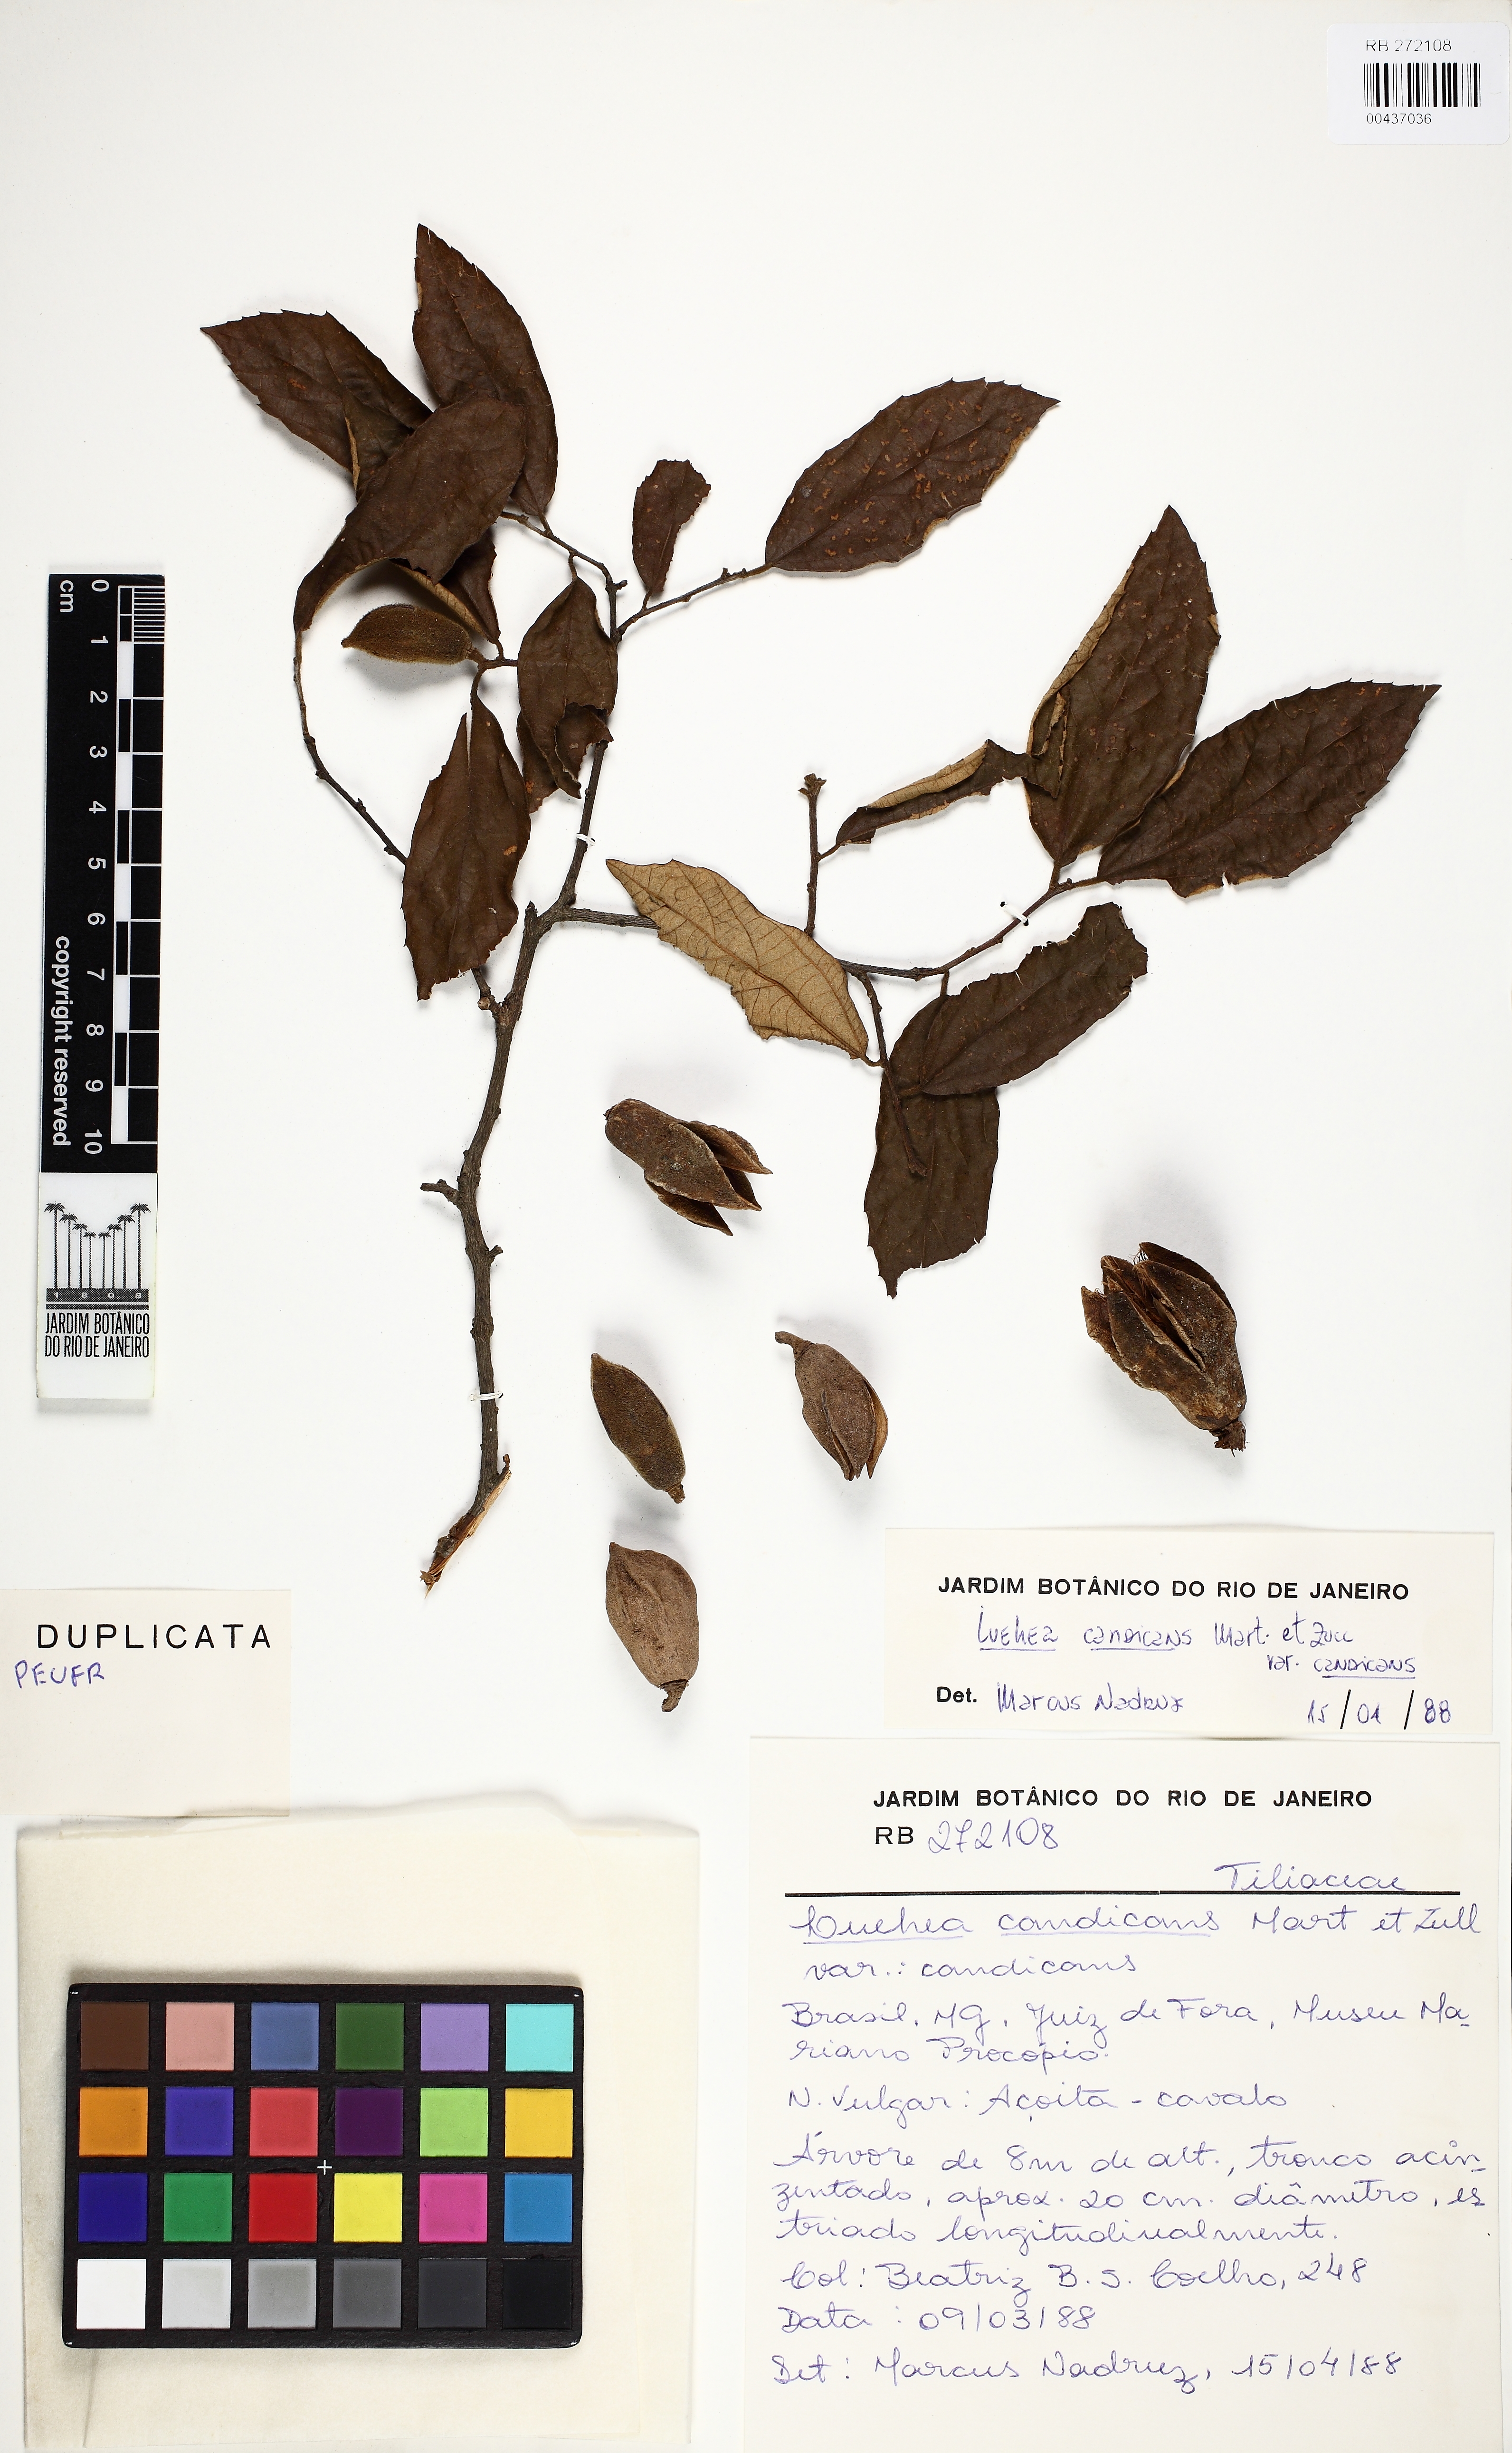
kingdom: Plantae
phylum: Tracheophyta
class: Magnoliopsida
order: Malvales
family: Malvaceae
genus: Luehea
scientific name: Luehea candicans
